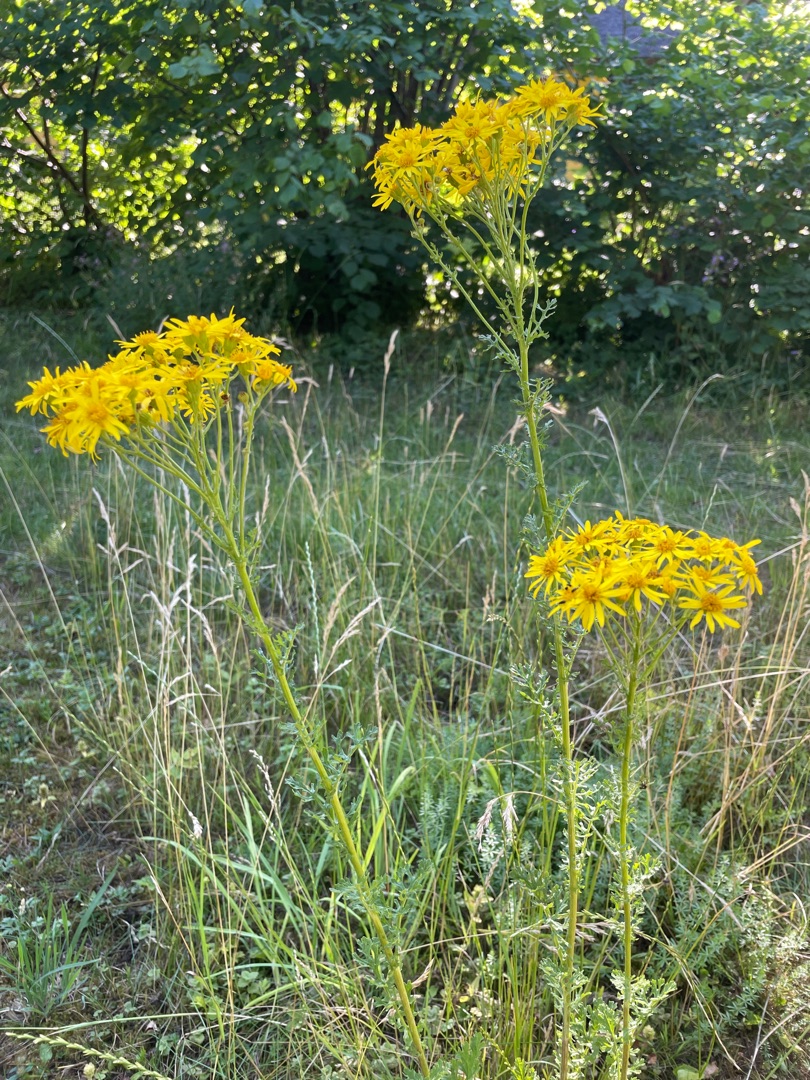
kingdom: Plantae
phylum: Tracheophyta
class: Magnoliopsida
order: Asterales
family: Asteraceae
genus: Jacobaea
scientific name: Jacobaea vulgaris
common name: Eng-brandbæger
